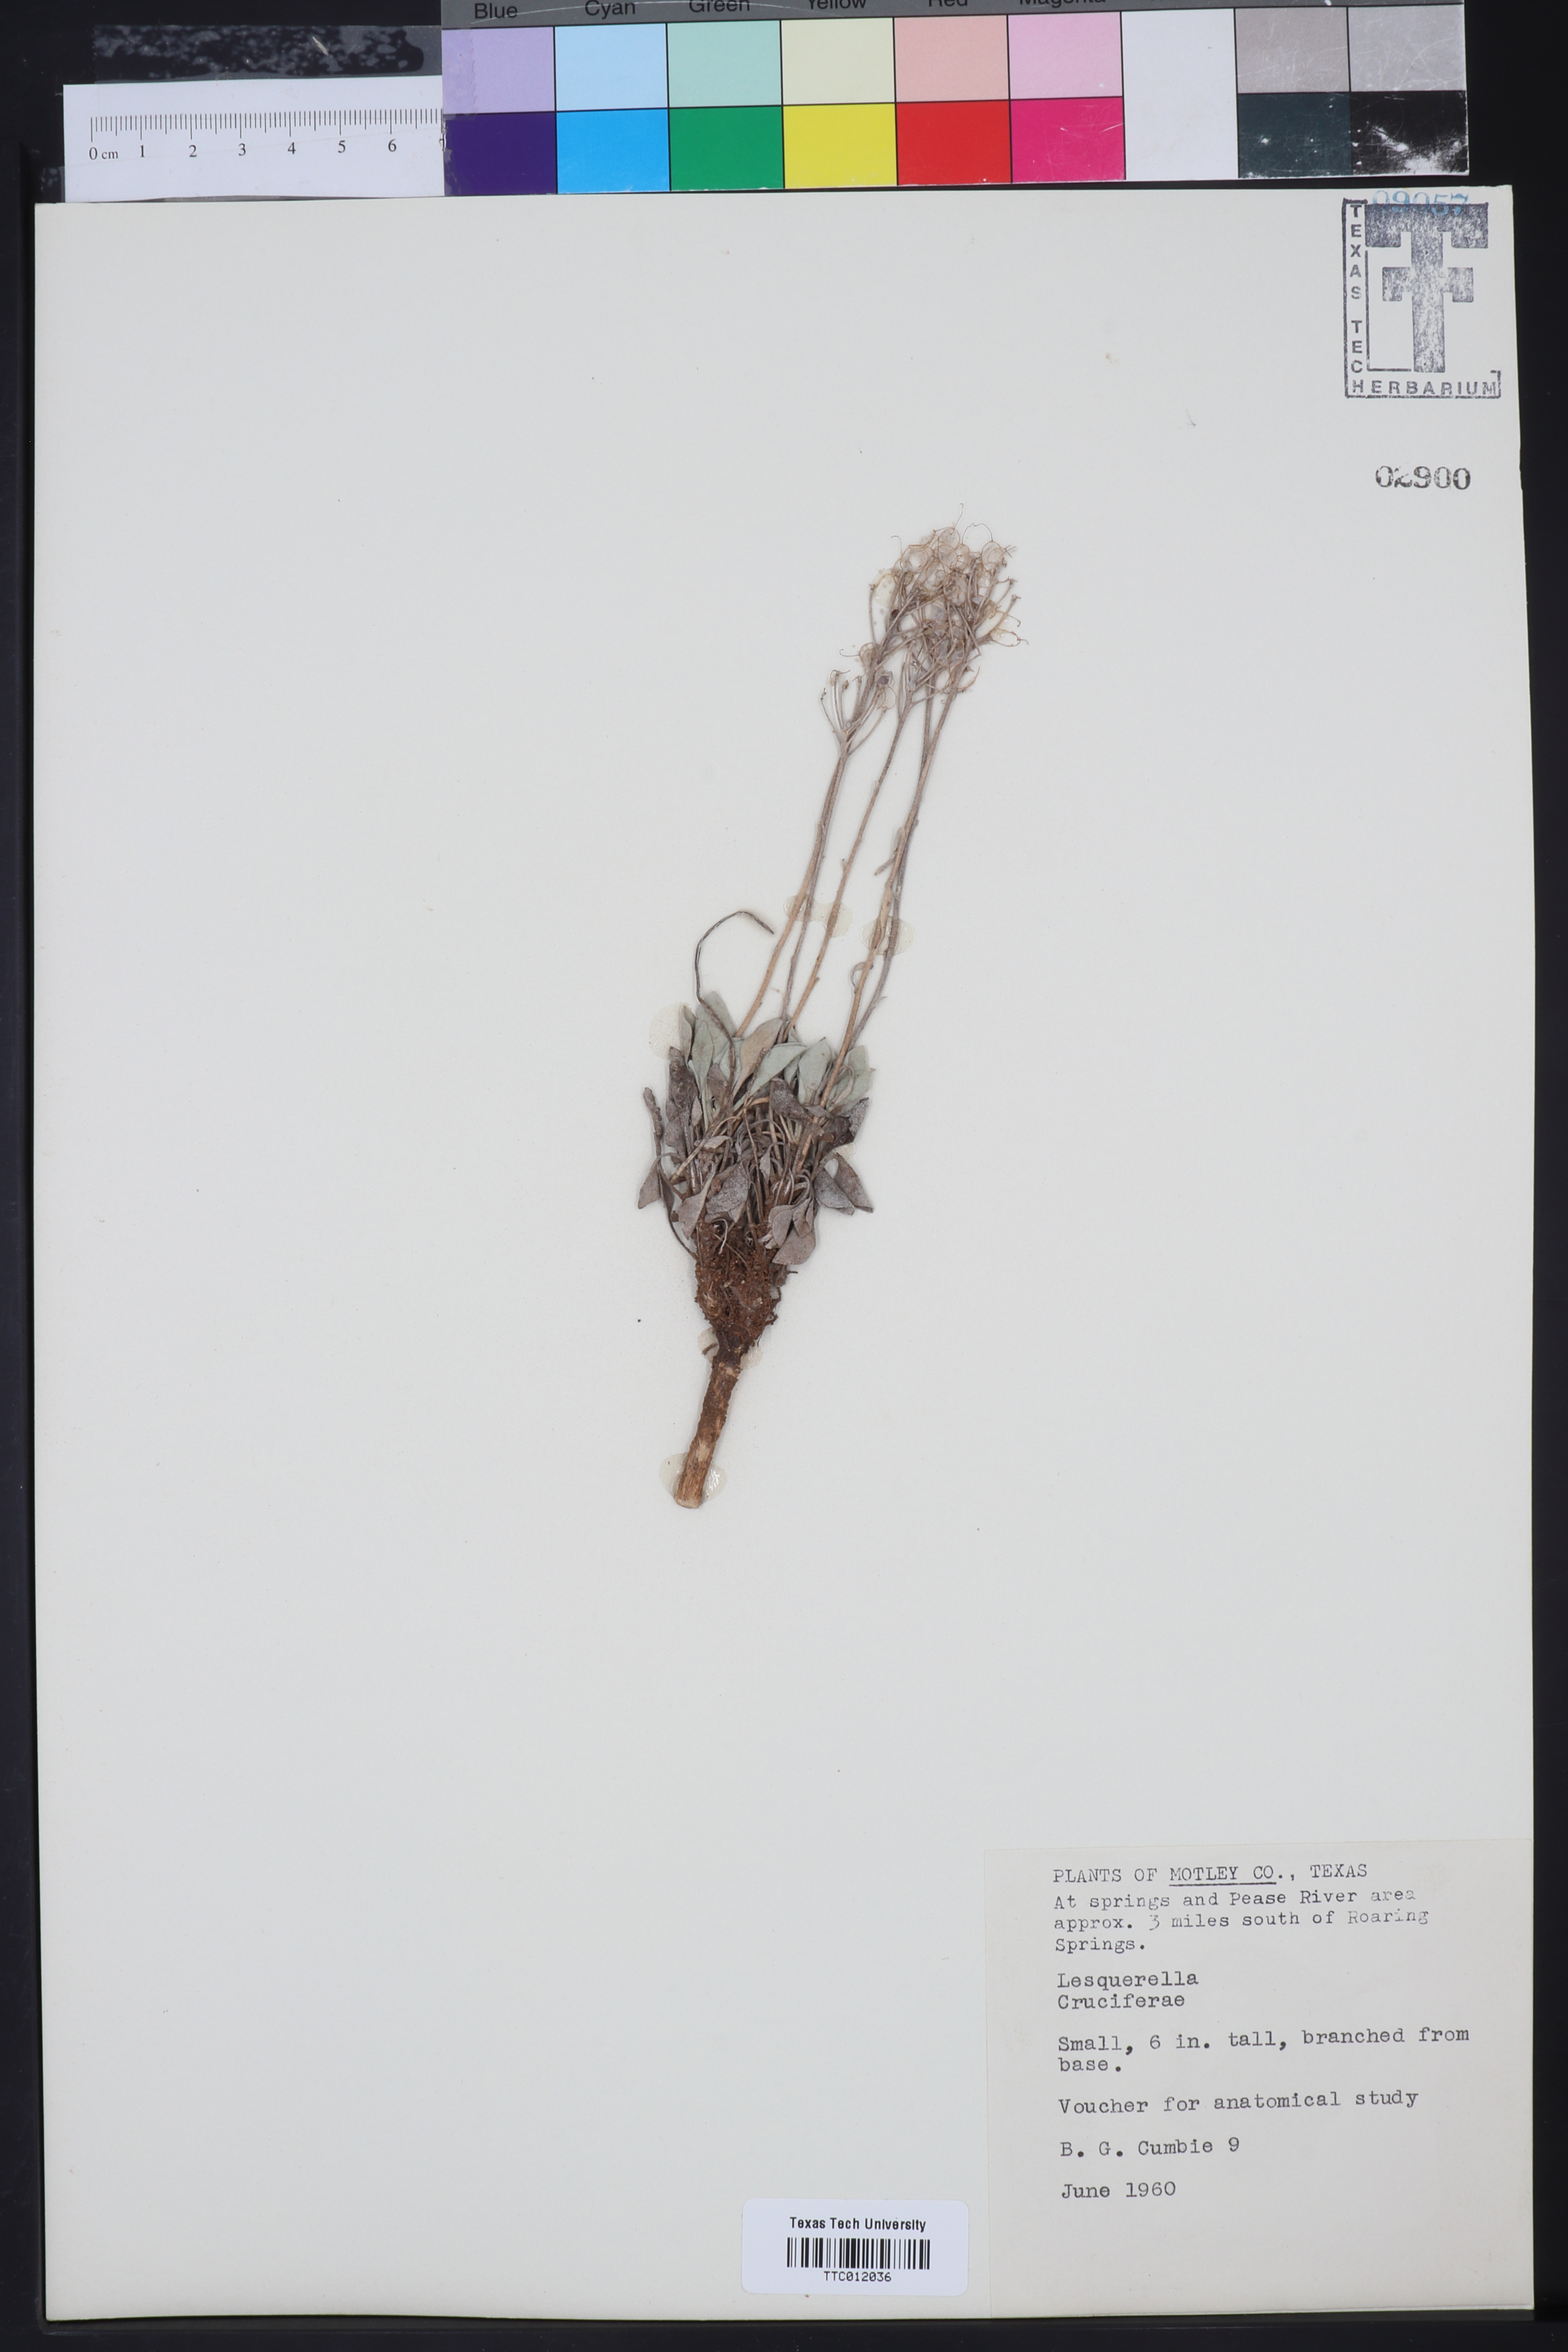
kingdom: Chromista
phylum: Cercozoa
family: Psammonobiotidae
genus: Lesquerella
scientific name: Lesquerella
